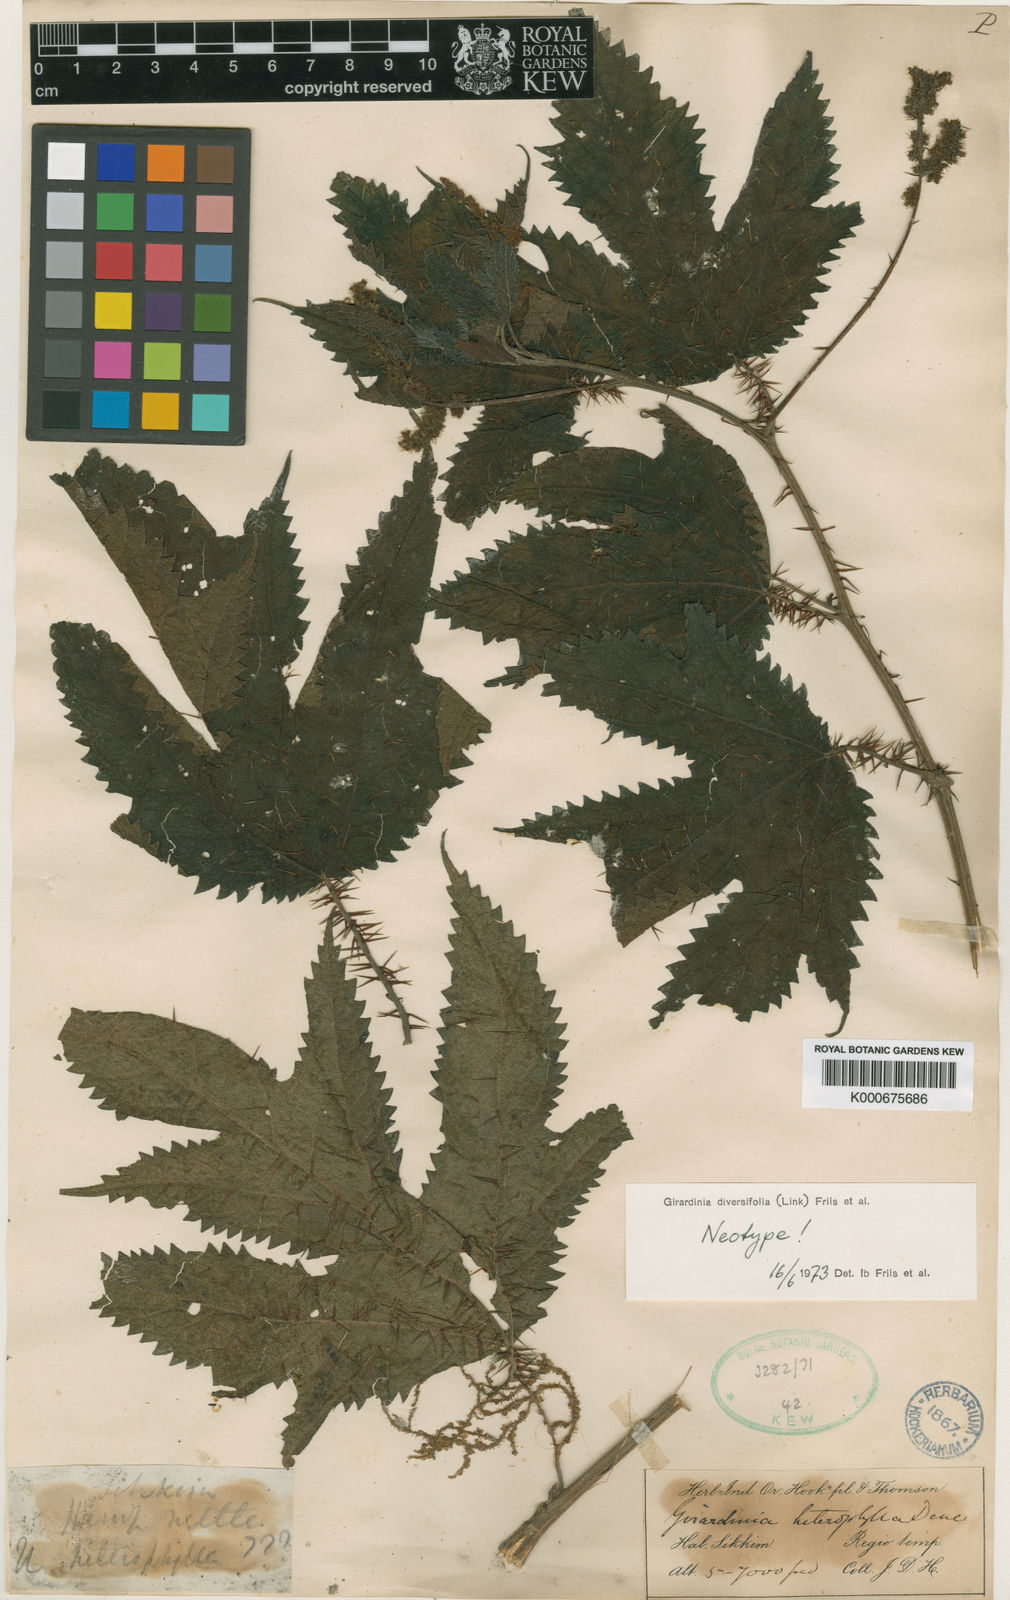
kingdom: Plantae
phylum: Tracheophyta
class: Magnoliopsida
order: Rosales
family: Urticaceae
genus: Girardinia
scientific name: Girardinia diversifolia
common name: Himalayan-nettle
